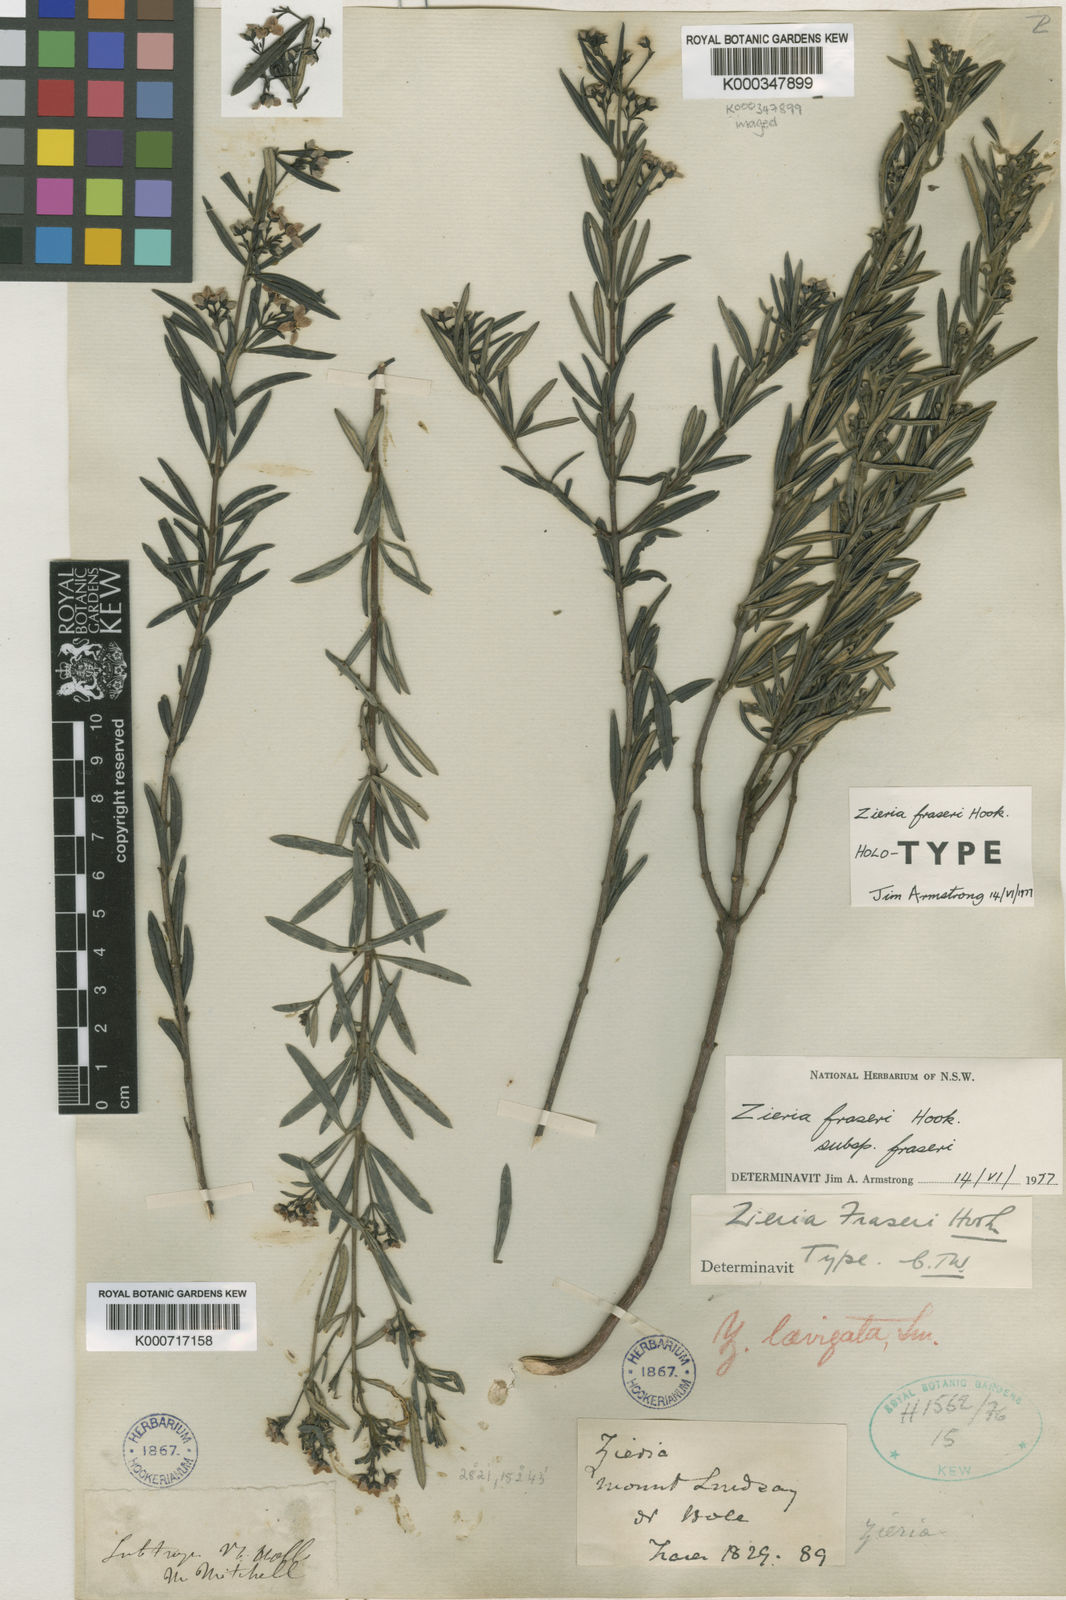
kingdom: Plantae
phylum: Tracheophyta
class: Magnoliopsida
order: Sapindales
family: Rutaceae
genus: Zieria
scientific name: Zieria fraseri
